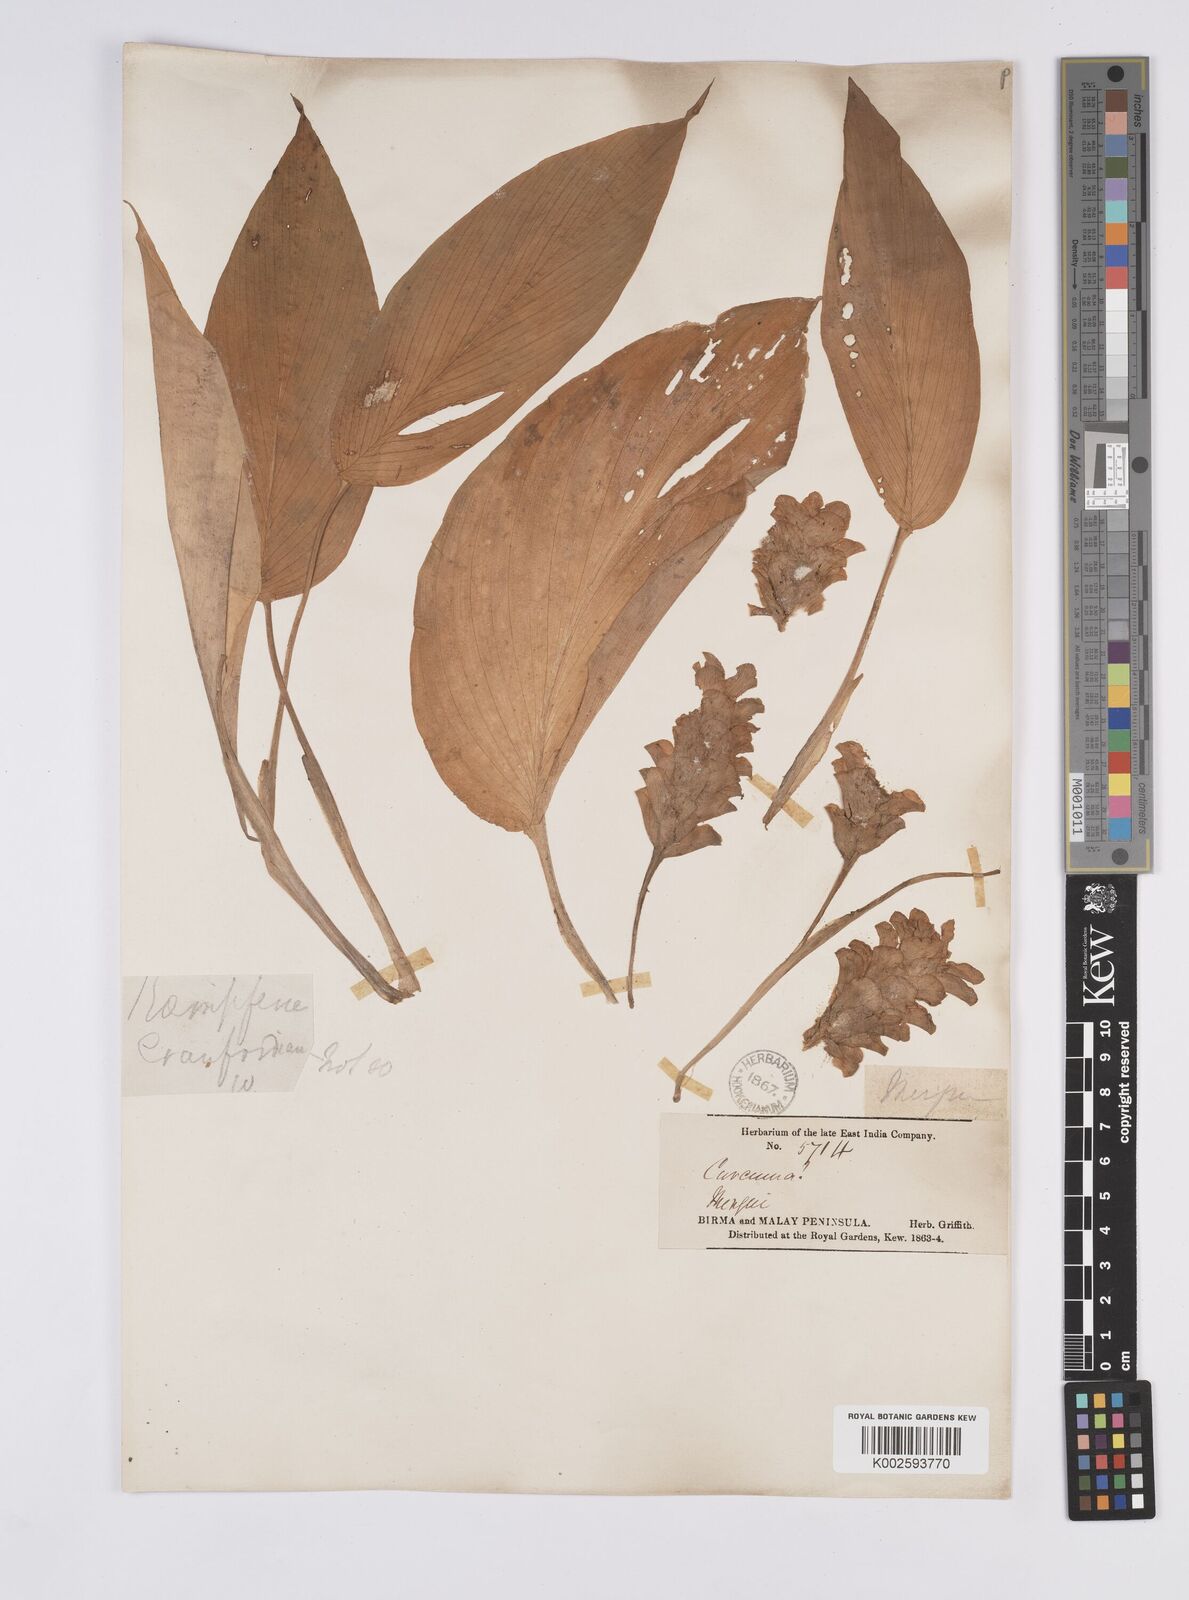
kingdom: Plantae
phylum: Tracheophyta
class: Liliopsida
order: Zingiberales
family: Zingiberaceae
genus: Curcuma
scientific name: Curcuma
